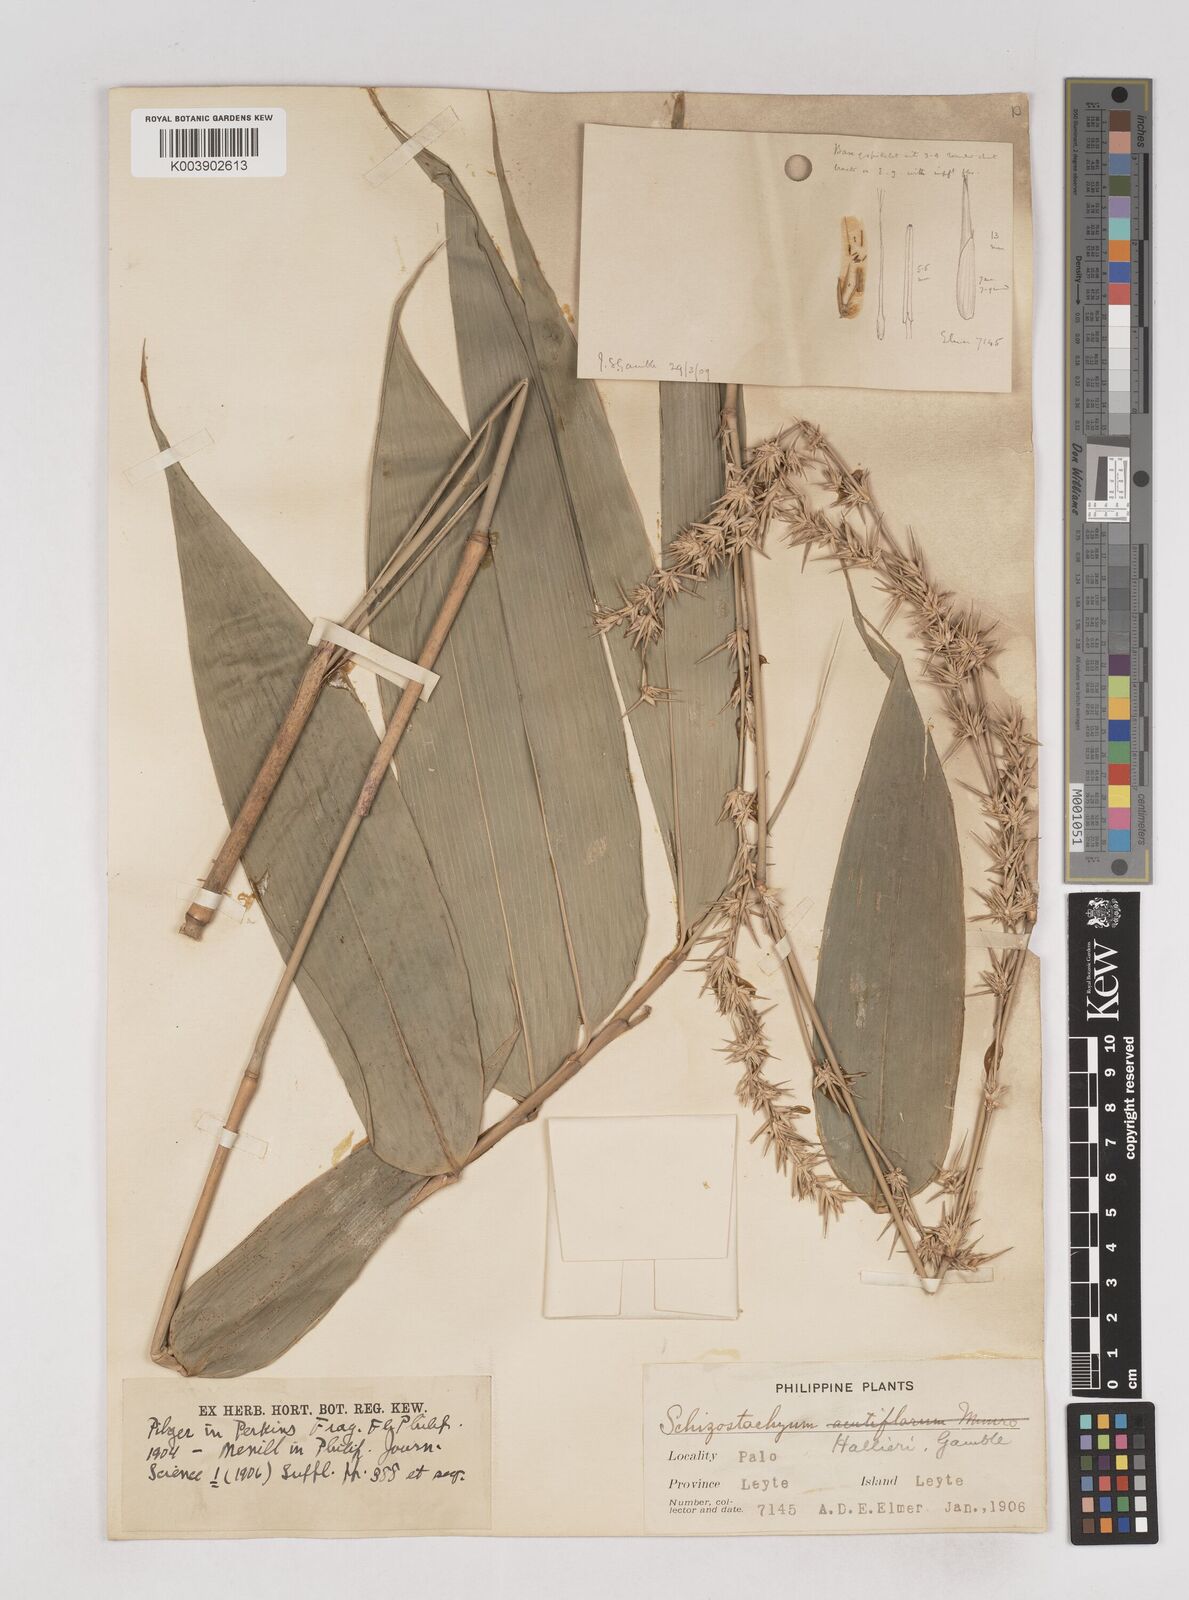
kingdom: Plantae
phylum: Tracheophyta
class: Liliopsida
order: Poales
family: Poaceae
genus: Schizostachyum
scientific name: Schizostachyum lima
